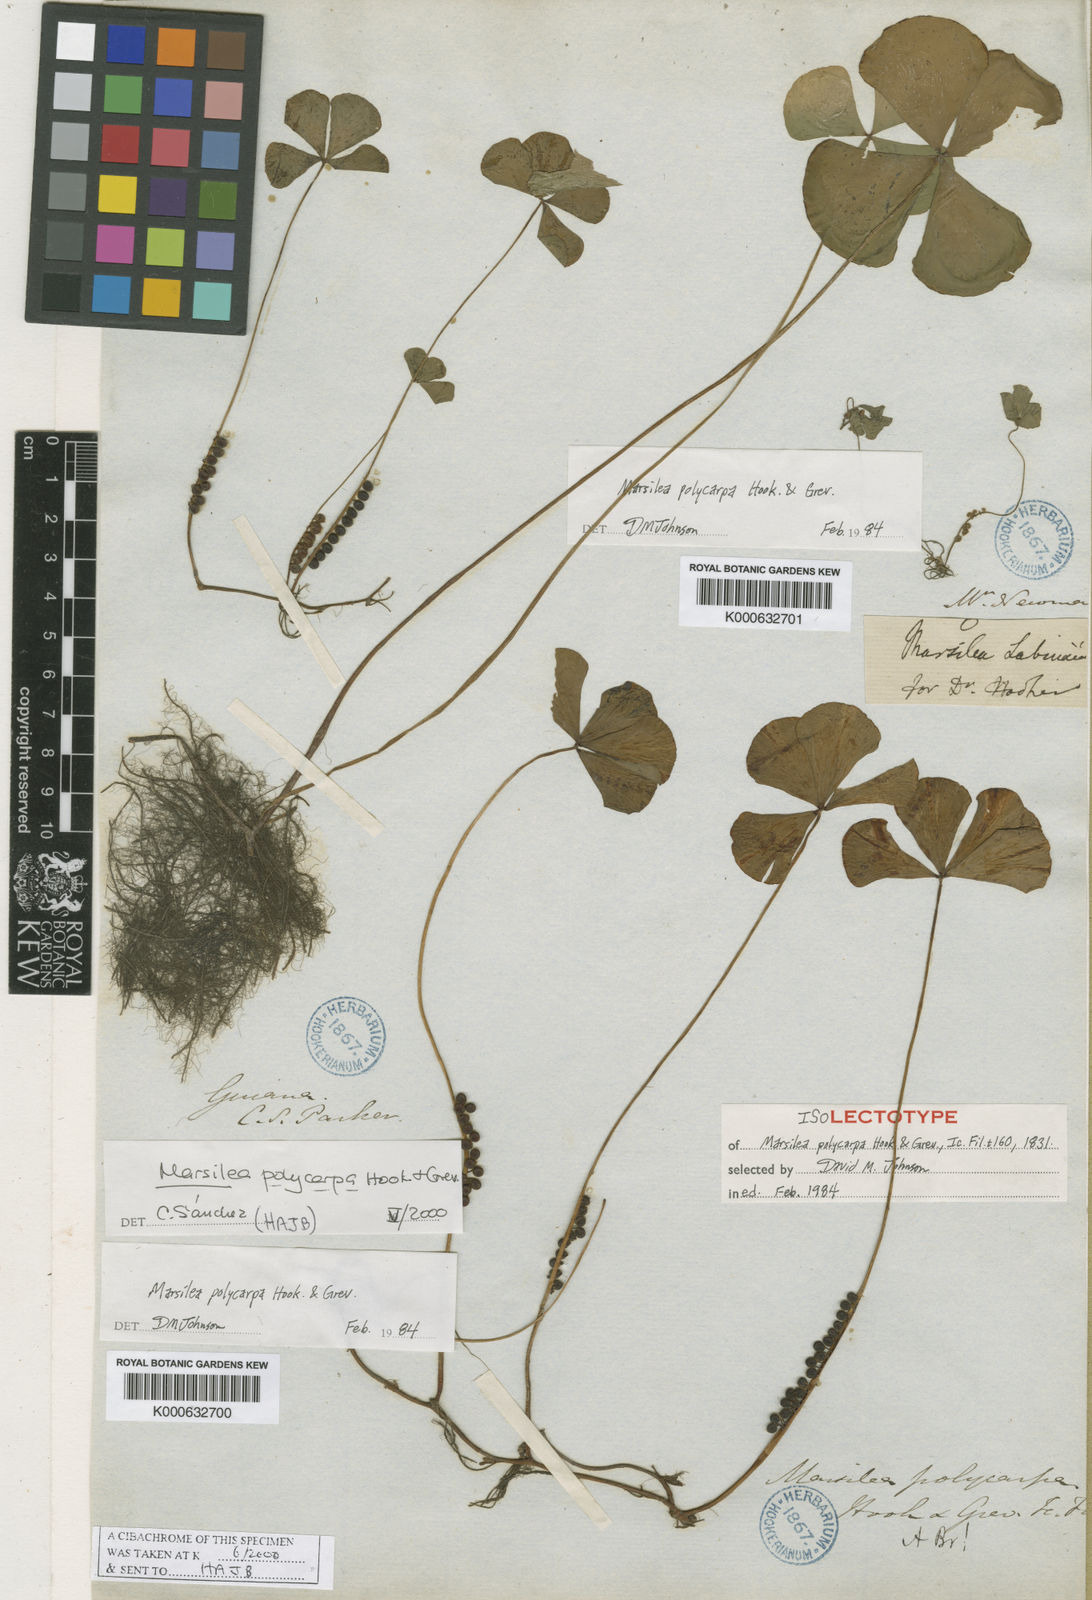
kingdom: Plantae
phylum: Tracheophyta
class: Polypodiopsida
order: Salviniales
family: Marsileaceae
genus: Marsilea
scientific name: Marsilea polycarpa
